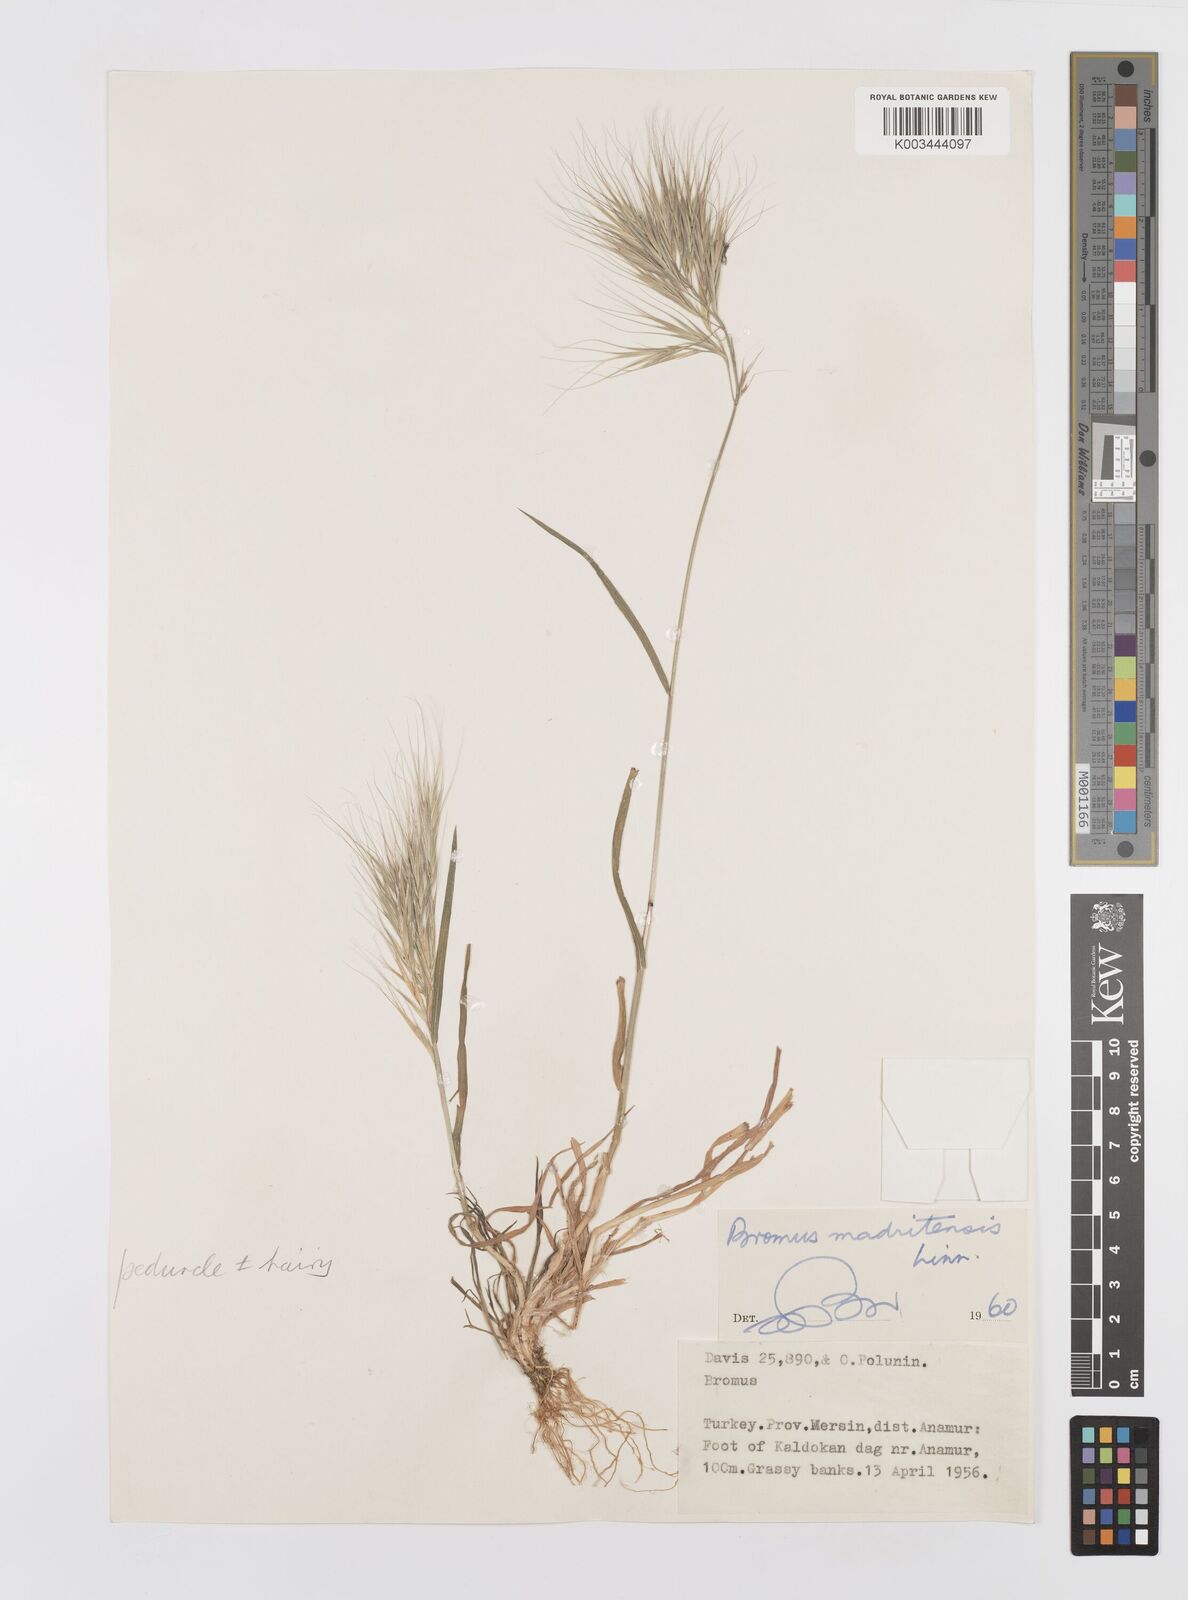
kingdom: Plantae
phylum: Tracheophyta
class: Liliopsida
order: Poales
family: Poaceae
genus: Bromus
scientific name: Bromus madritensis
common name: Compact brome
